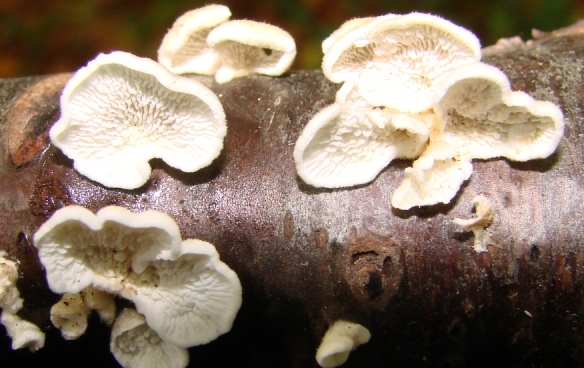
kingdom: Fungi
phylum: Basidiomycota
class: Agaricomycetes
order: Amylocorticiales
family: Amylocorticiaceae
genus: Plicaturopsis
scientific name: Plicaturopsis crispa
